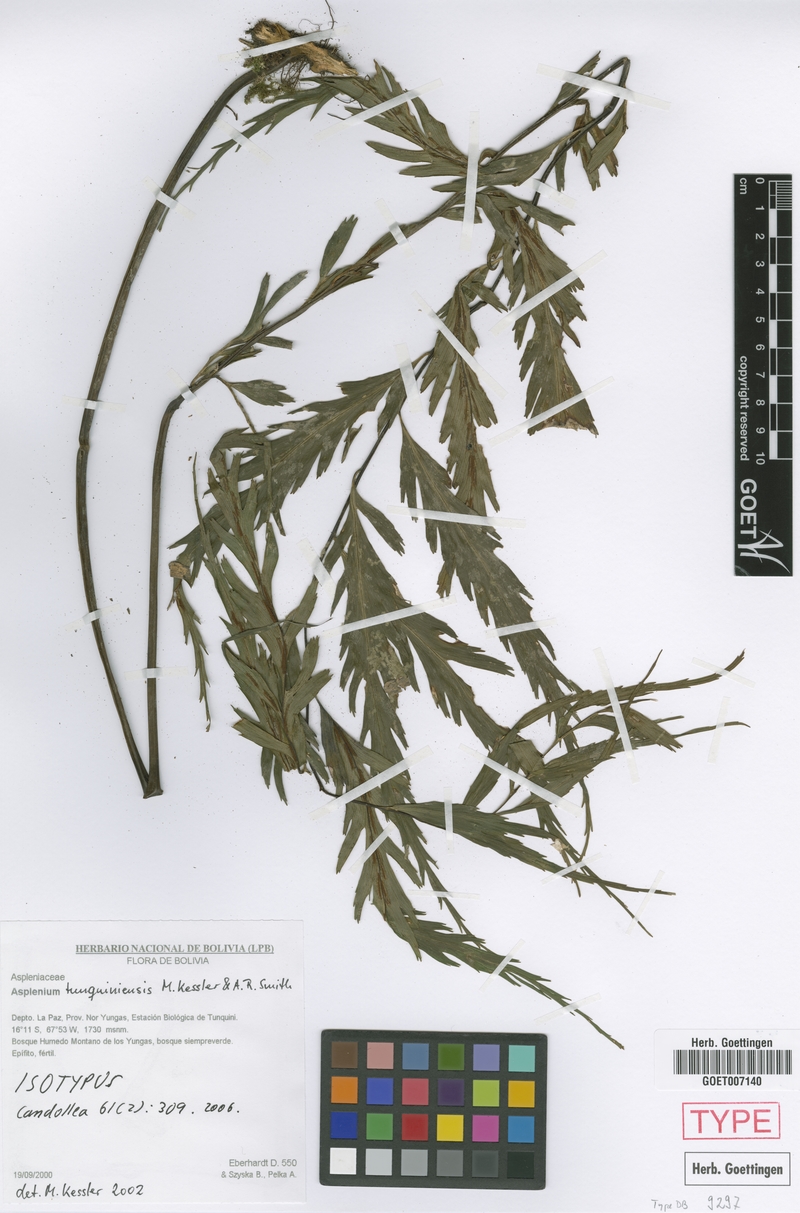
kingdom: Plantae
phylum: Tracheophyta
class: Polypodiopsida
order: Polypodiales
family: Aspleniaceae
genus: Asplenium
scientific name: Asplenium tunquiniense
